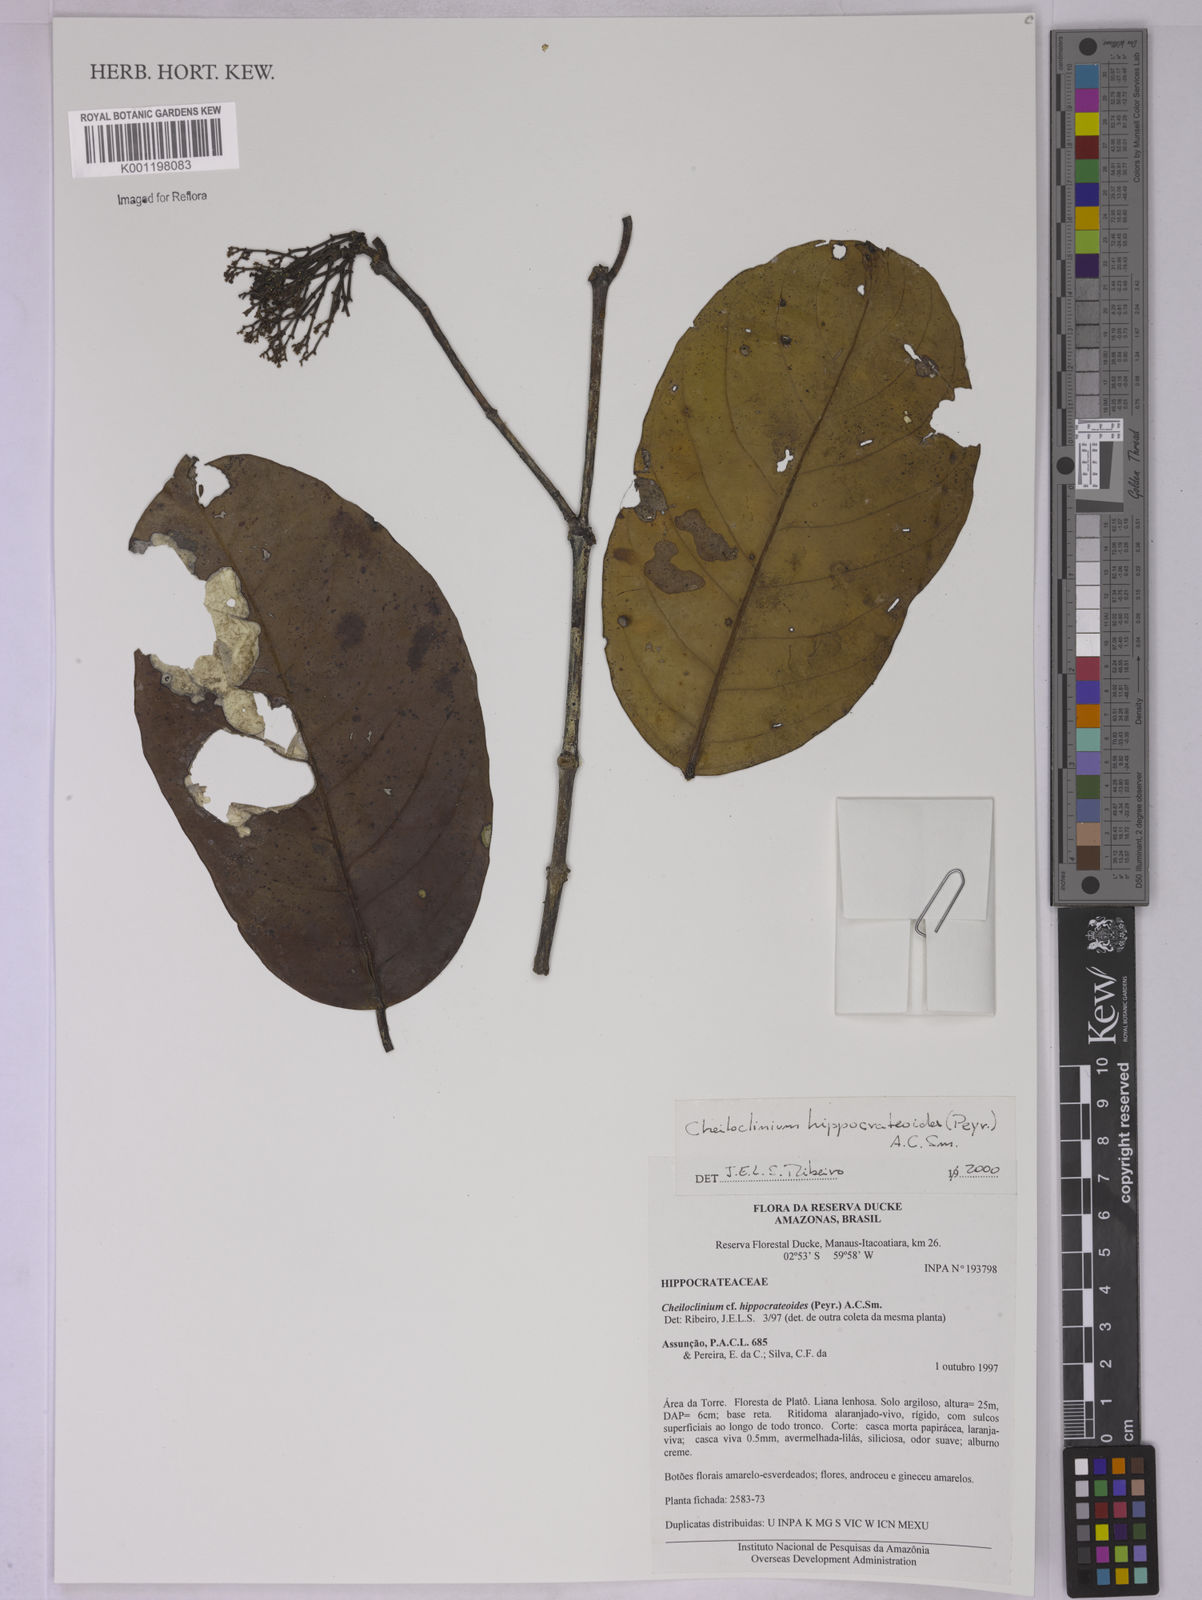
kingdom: Plantae
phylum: Tracheophyta
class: Magnoliopsida
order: Celastrales
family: Celastraceae
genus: Cheiloclinium
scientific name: Cheiloclinium hippocrateoides
